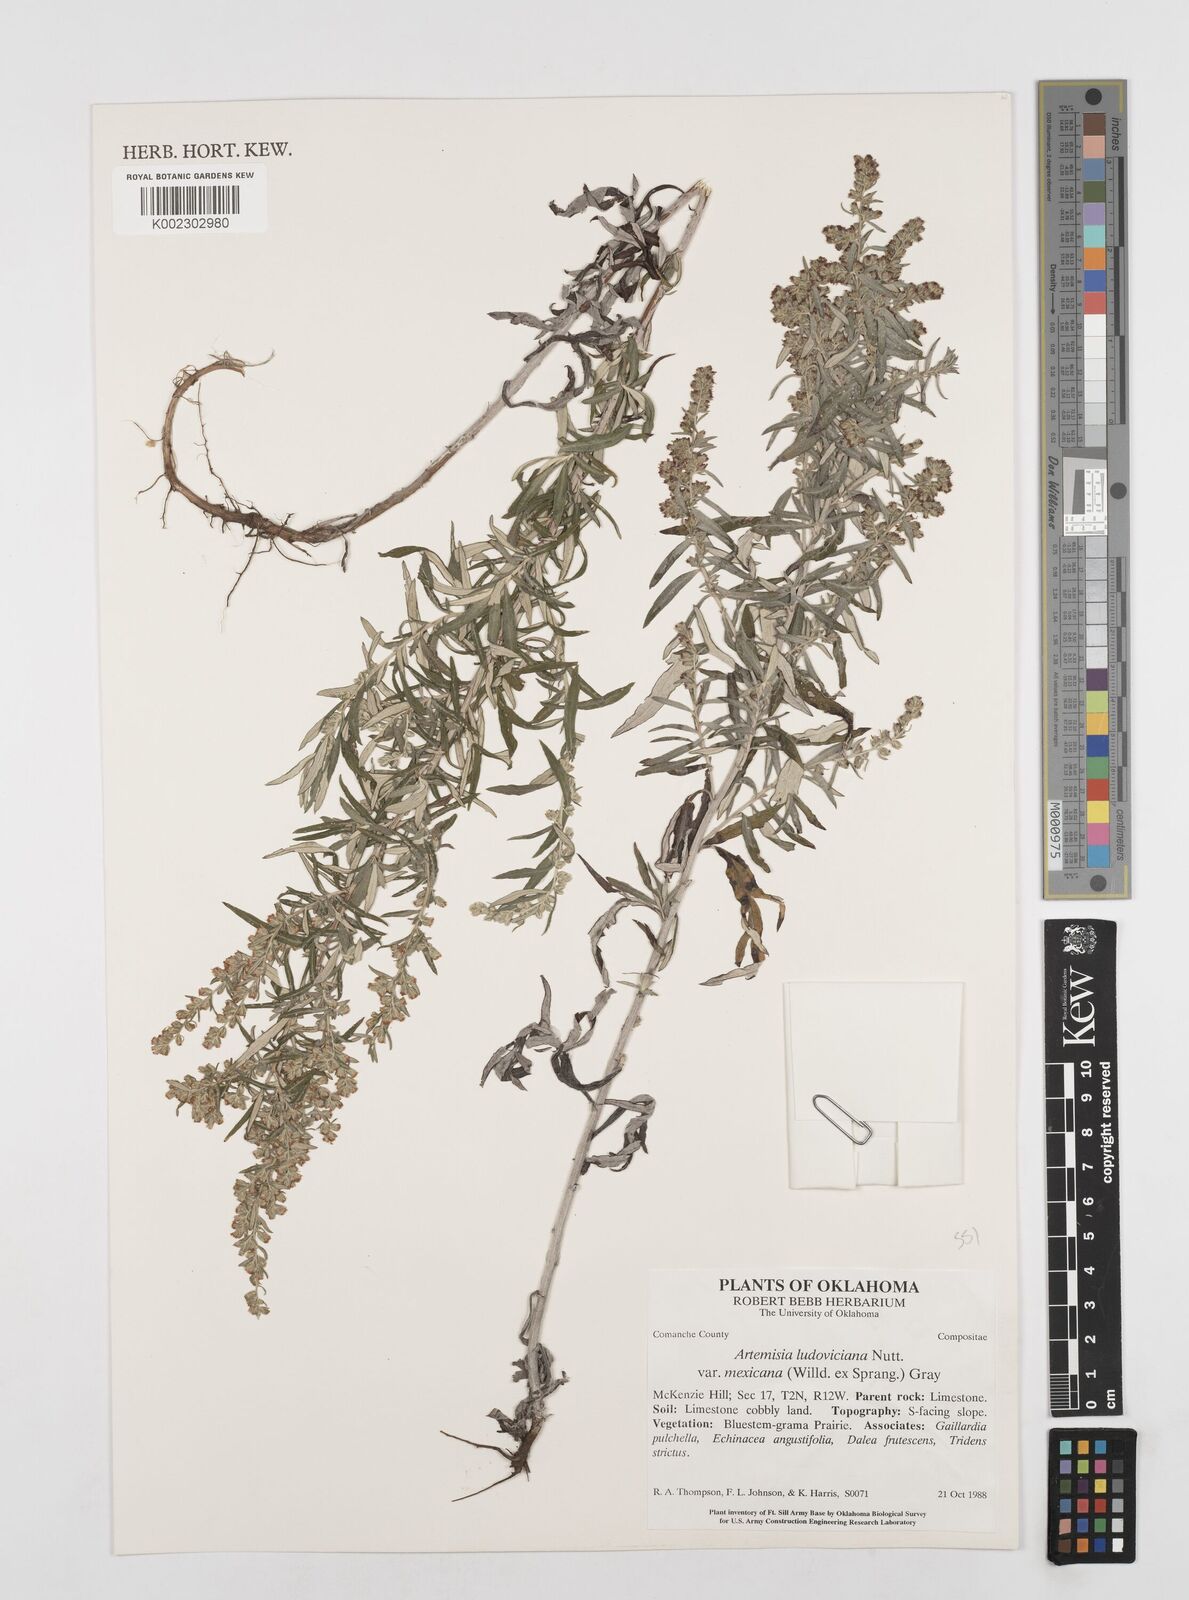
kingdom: Plantae
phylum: Tracheophyta
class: Magnoliopsida
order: Asterales
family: Asteraceae
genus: Artemisia
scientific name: Artemisia ludoviciana
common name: Western mugwort
